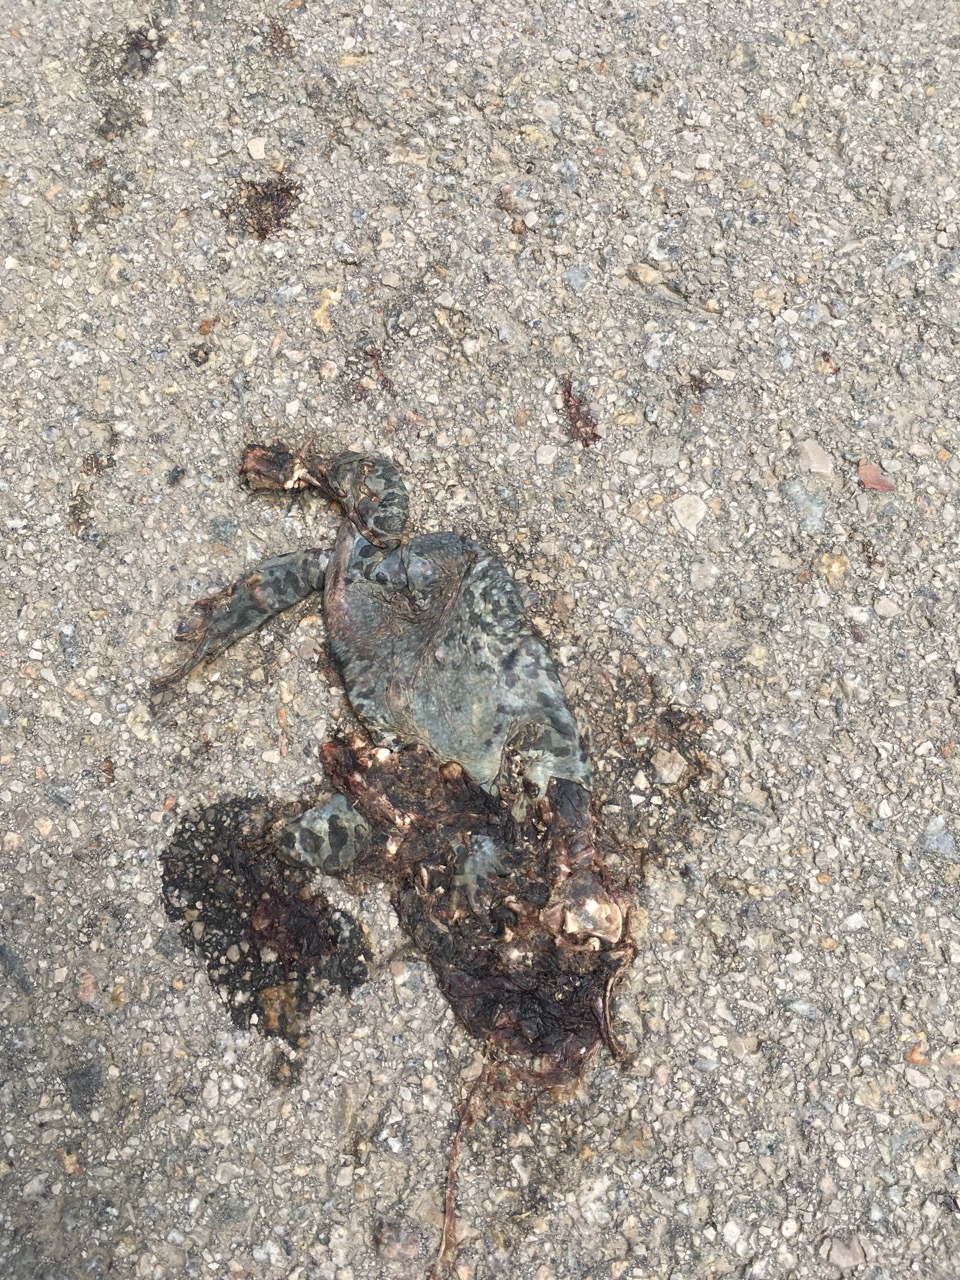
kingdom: Animalia
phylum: Chordata
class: Amphibia
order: Anura
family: Bufonidae
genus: Bufotes
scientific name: Bufotes viridis
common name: European green toad
